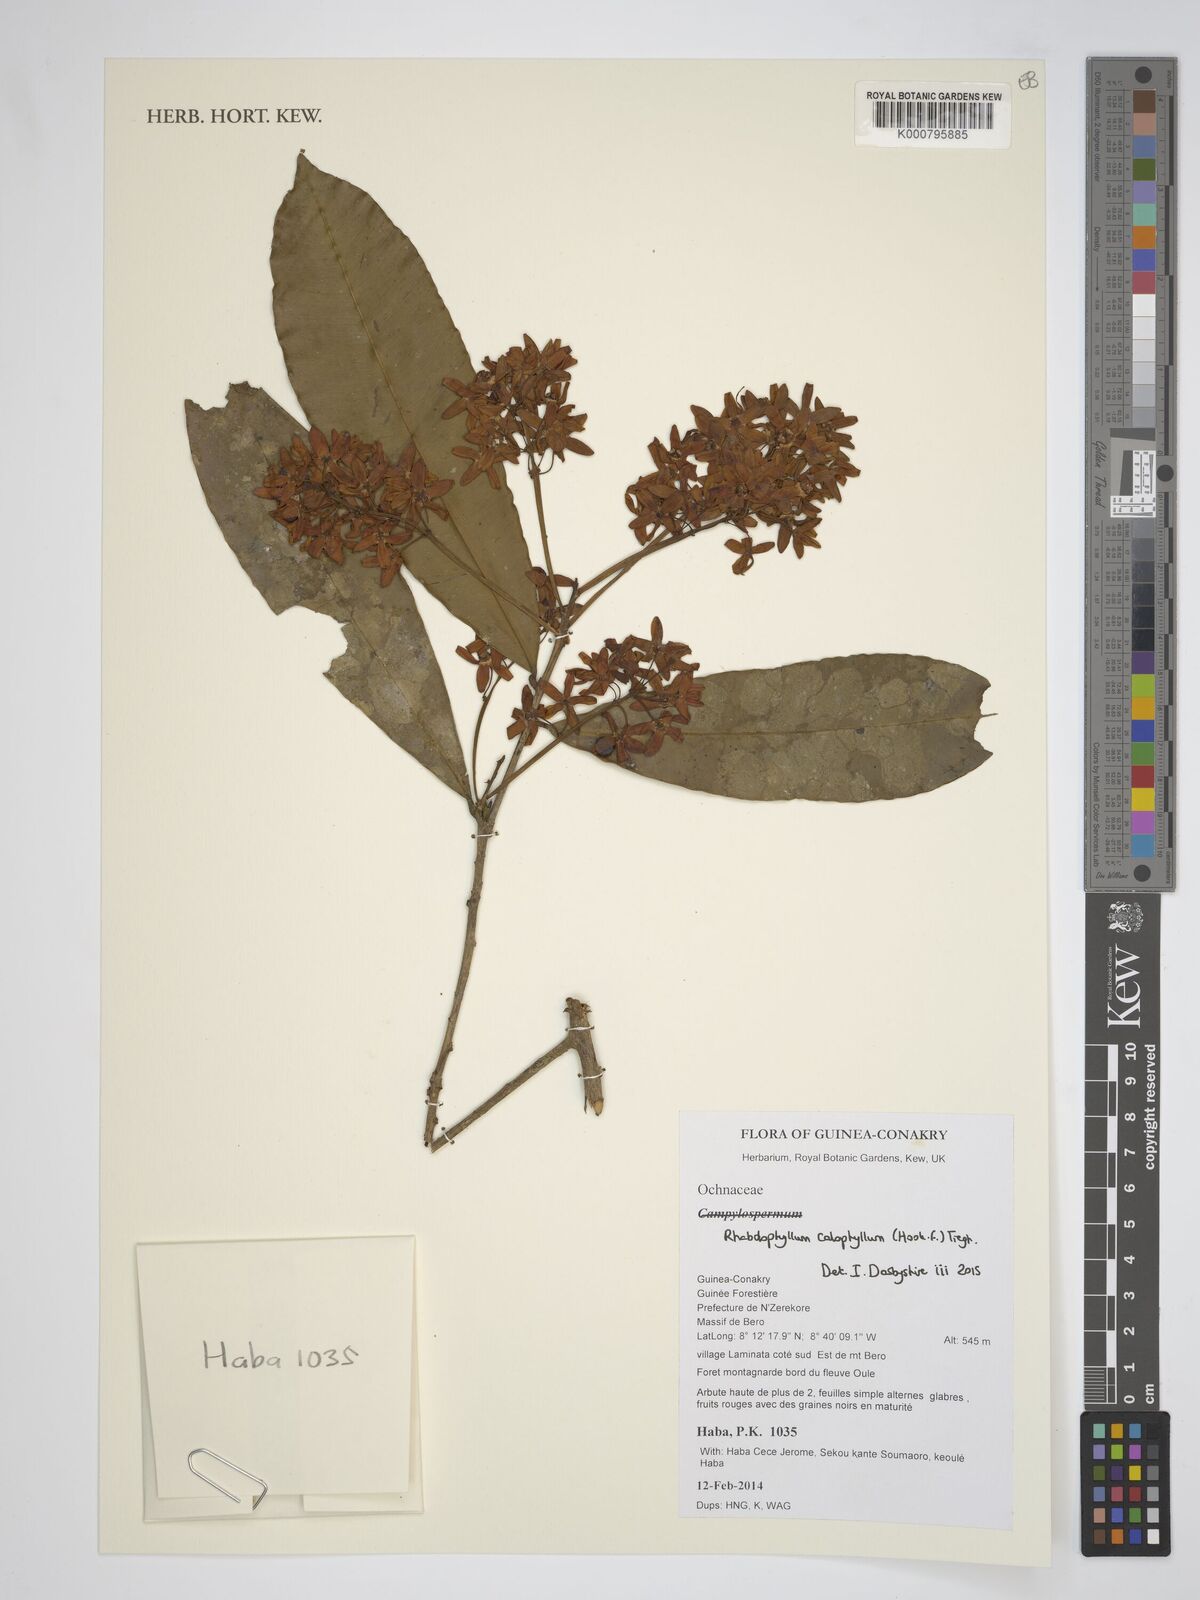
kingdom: Plantae
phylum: Tracheophyta
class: Magnoliopsida
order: Malpighiales
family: Ochnaceae
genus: Rhabdophyllum
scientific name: Rhabdophyllum calophyllum
